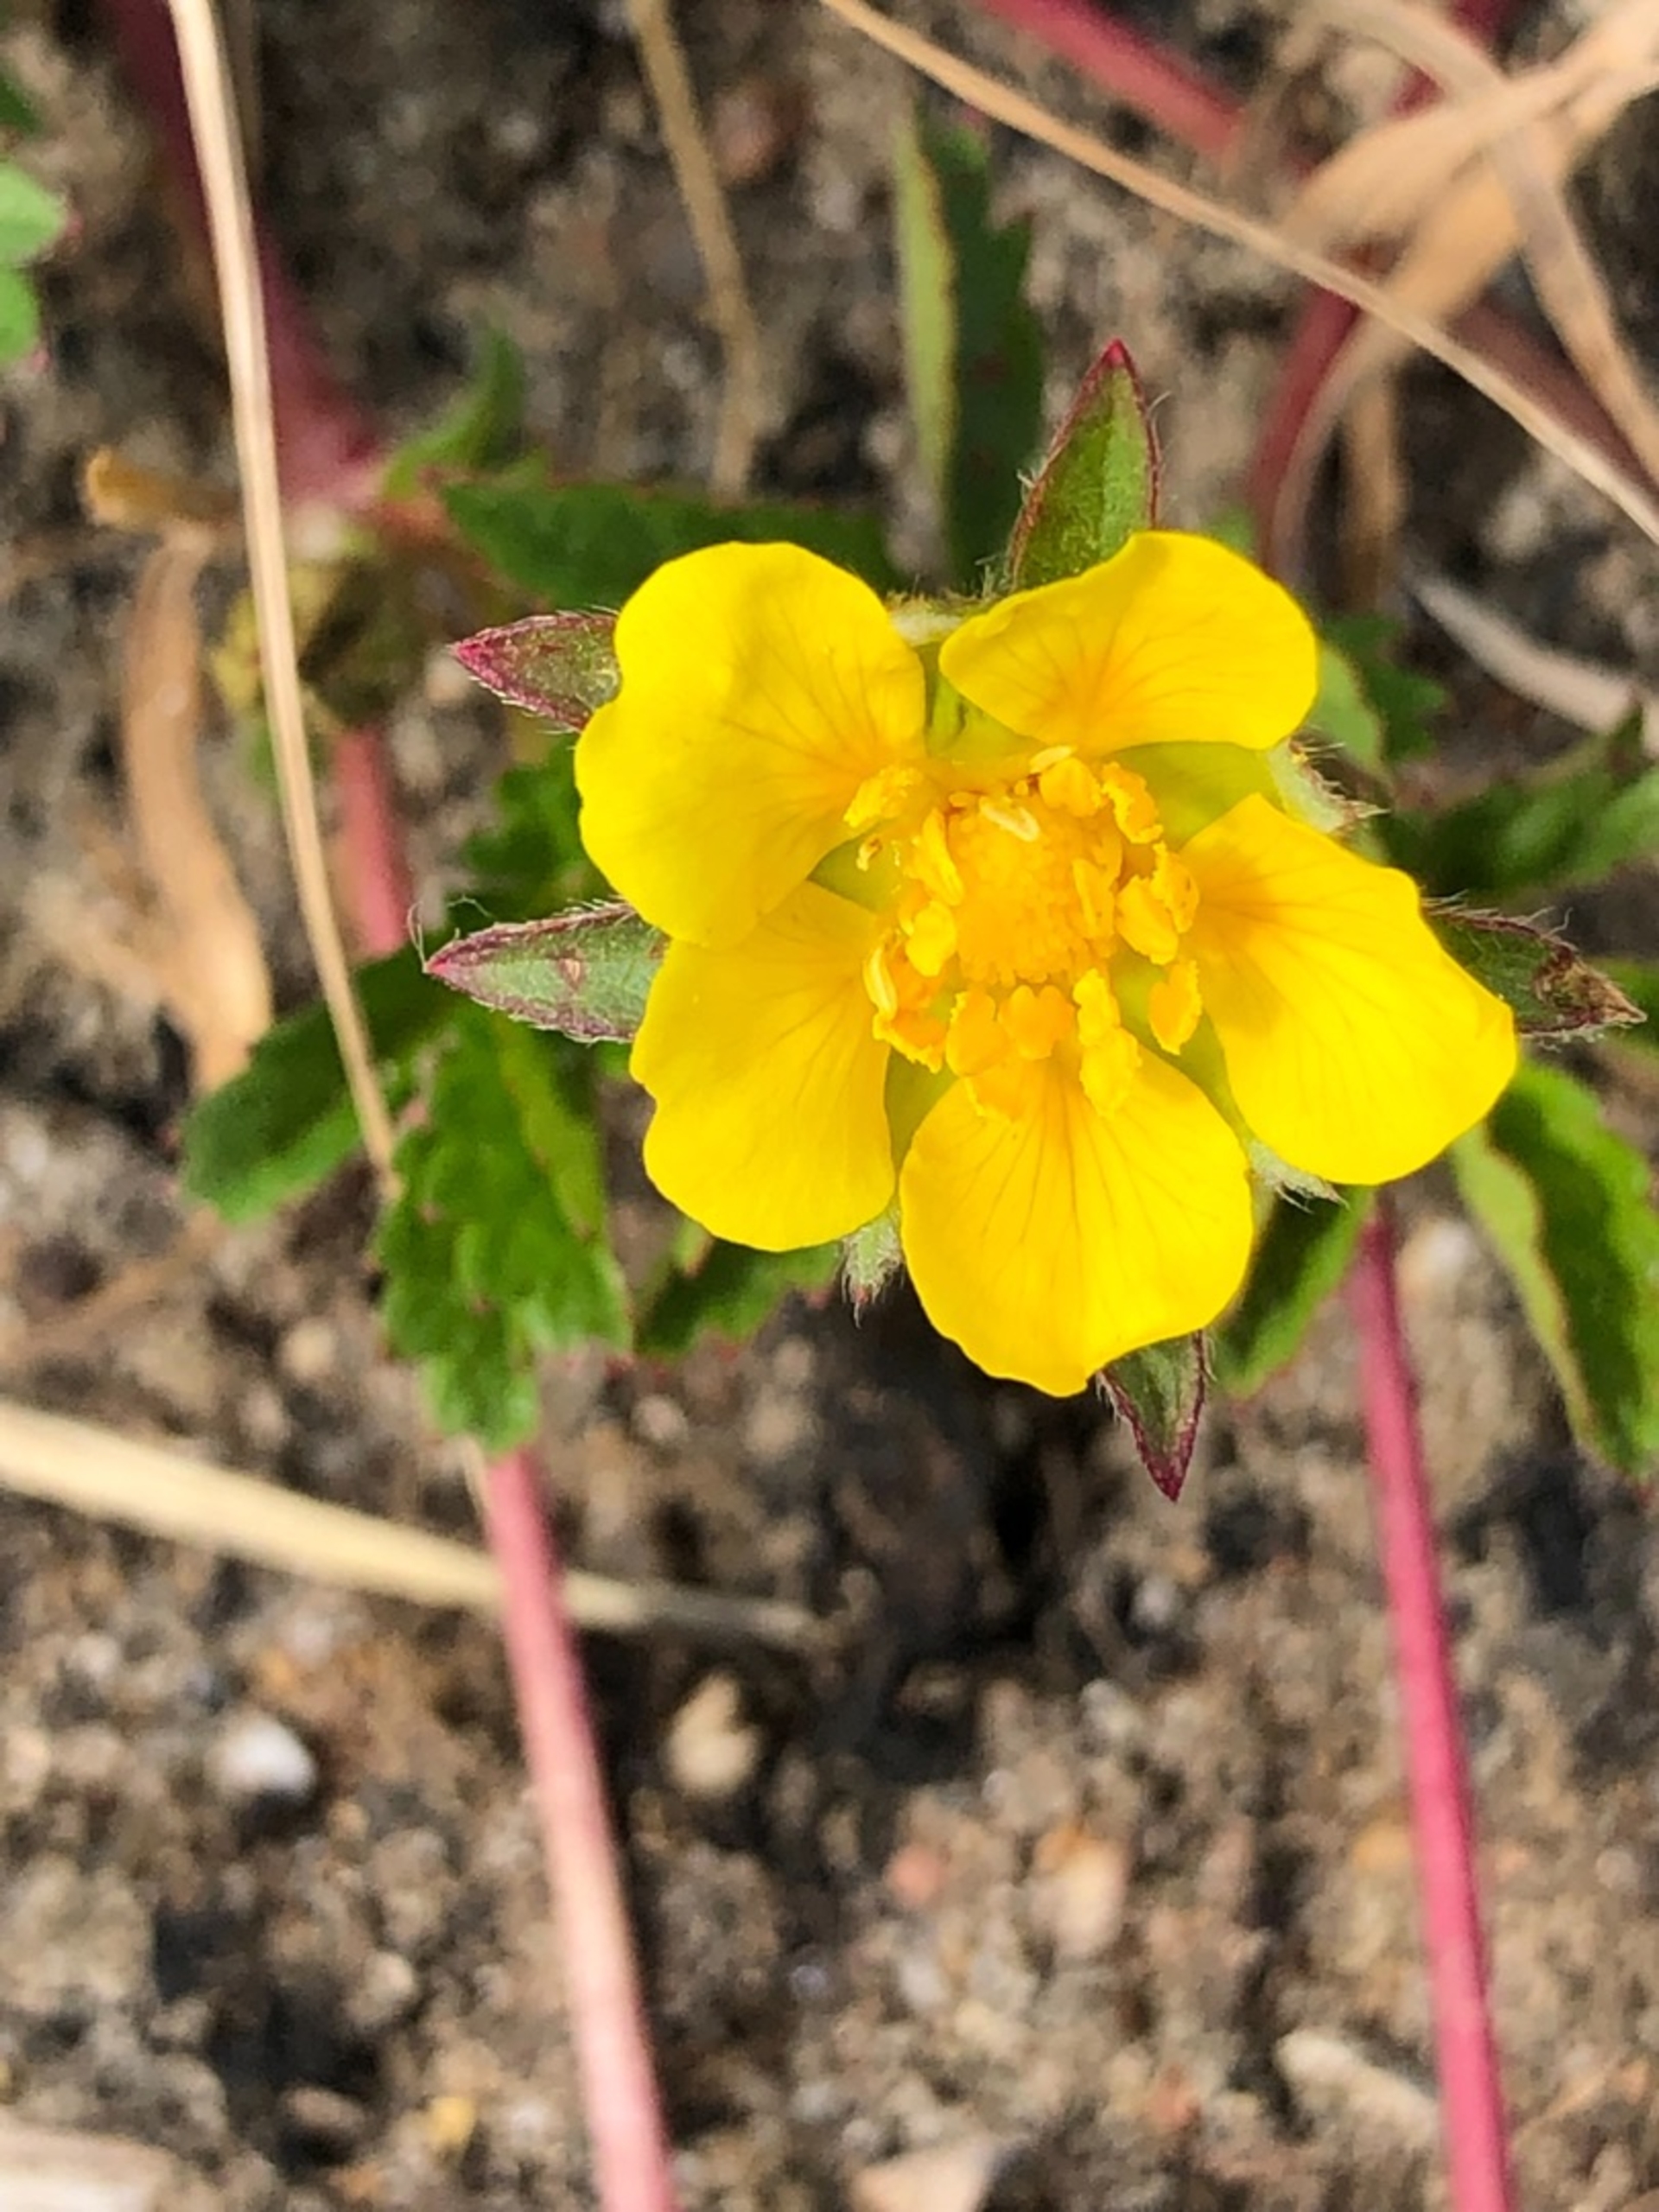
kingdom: Plantae
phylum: Tracheophyta
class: Magnoliopsida
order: Rosales
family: Rosaceae
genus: Potentilla
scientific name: Potentilla reptans
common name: Krybende potentil
